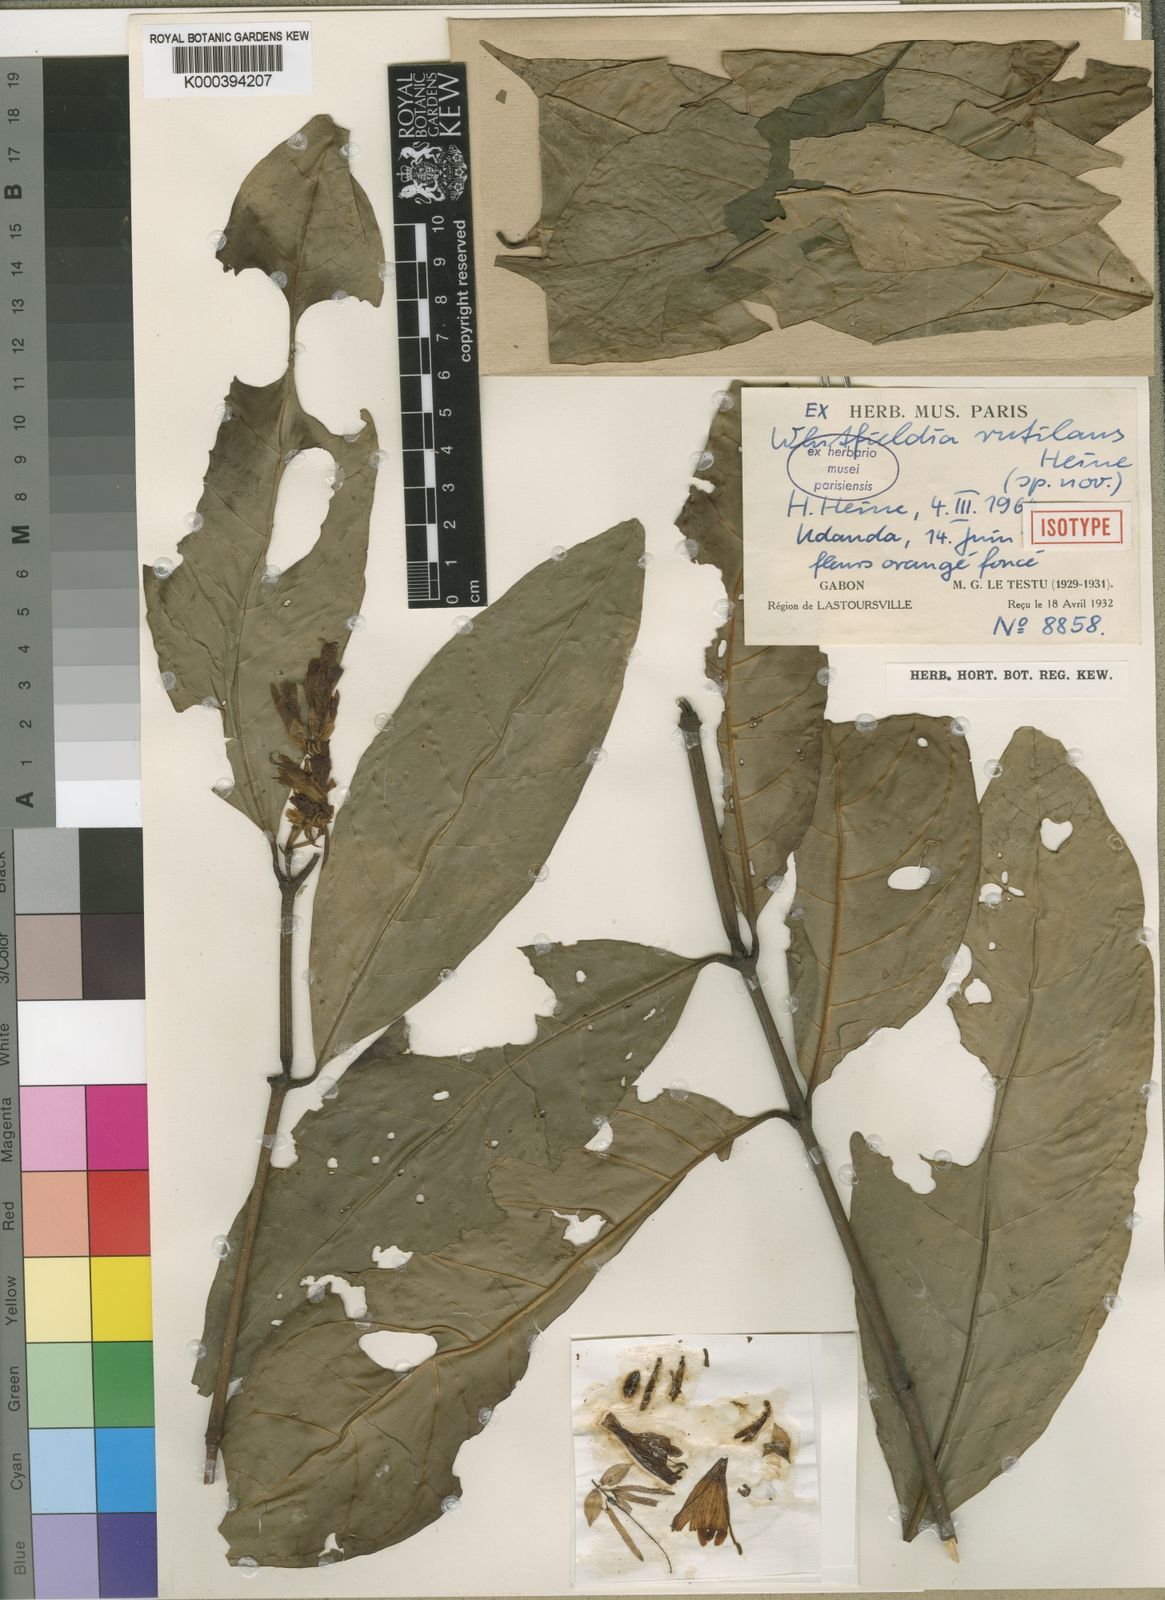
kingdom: Plantae
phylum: Tracheophyta
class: Magnoliopsida
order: Lamiales
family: Acanthaceae
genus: Whitfieldia
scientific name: Whitfieldia rutilans
